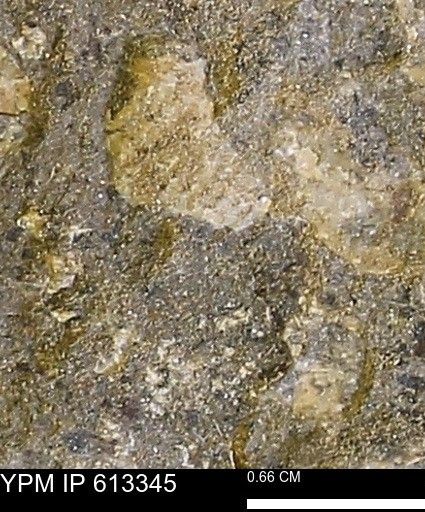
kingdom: Animalia
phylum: Mollusca
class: Cephalopoda
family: Scaphitidae
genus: Scaphites
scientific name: Scaphites
